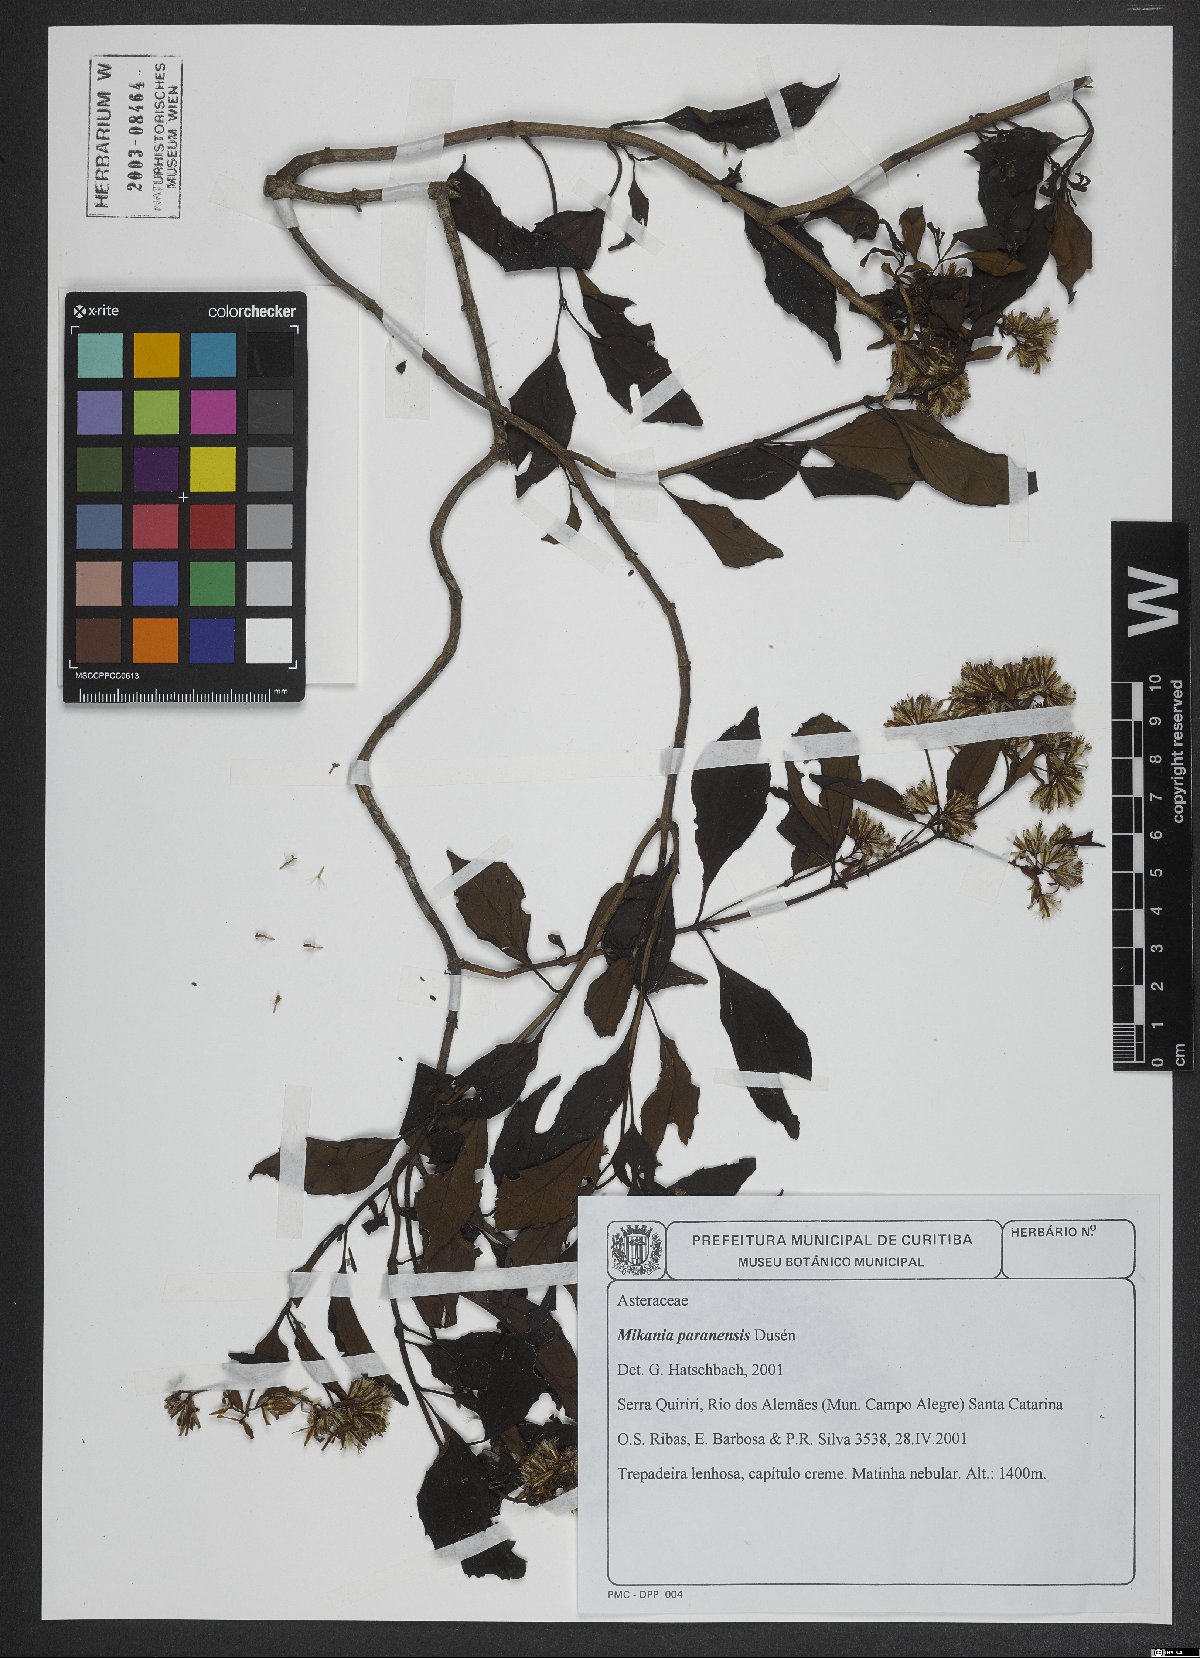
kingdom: Plantae
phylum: Tracheophyta
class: Magnoliopsida
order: Asterales
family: Asteraceae
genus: Mikania
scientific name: Mikania paranensis
